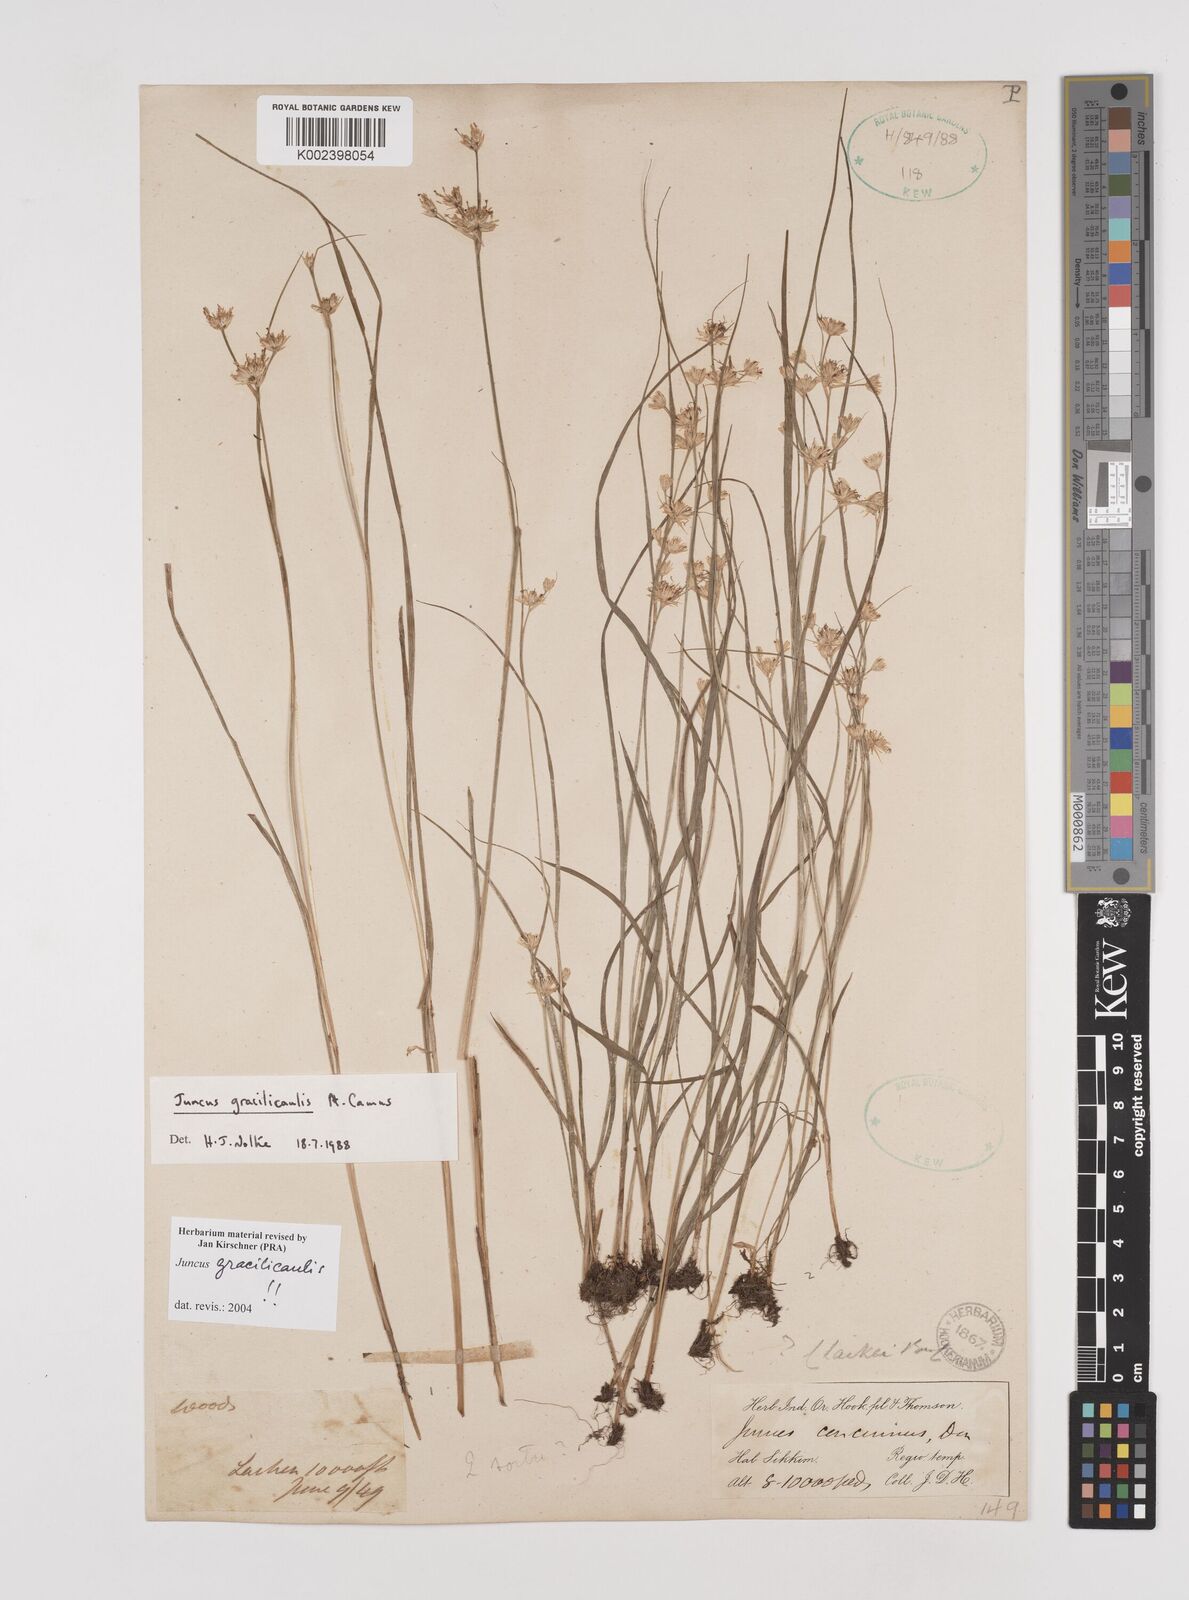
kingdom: Plantae
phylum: Tracheophyta
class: Liliopsida
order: Poales
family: Juncaceae
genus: Juncus
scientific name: Juncus gracilicaulis
